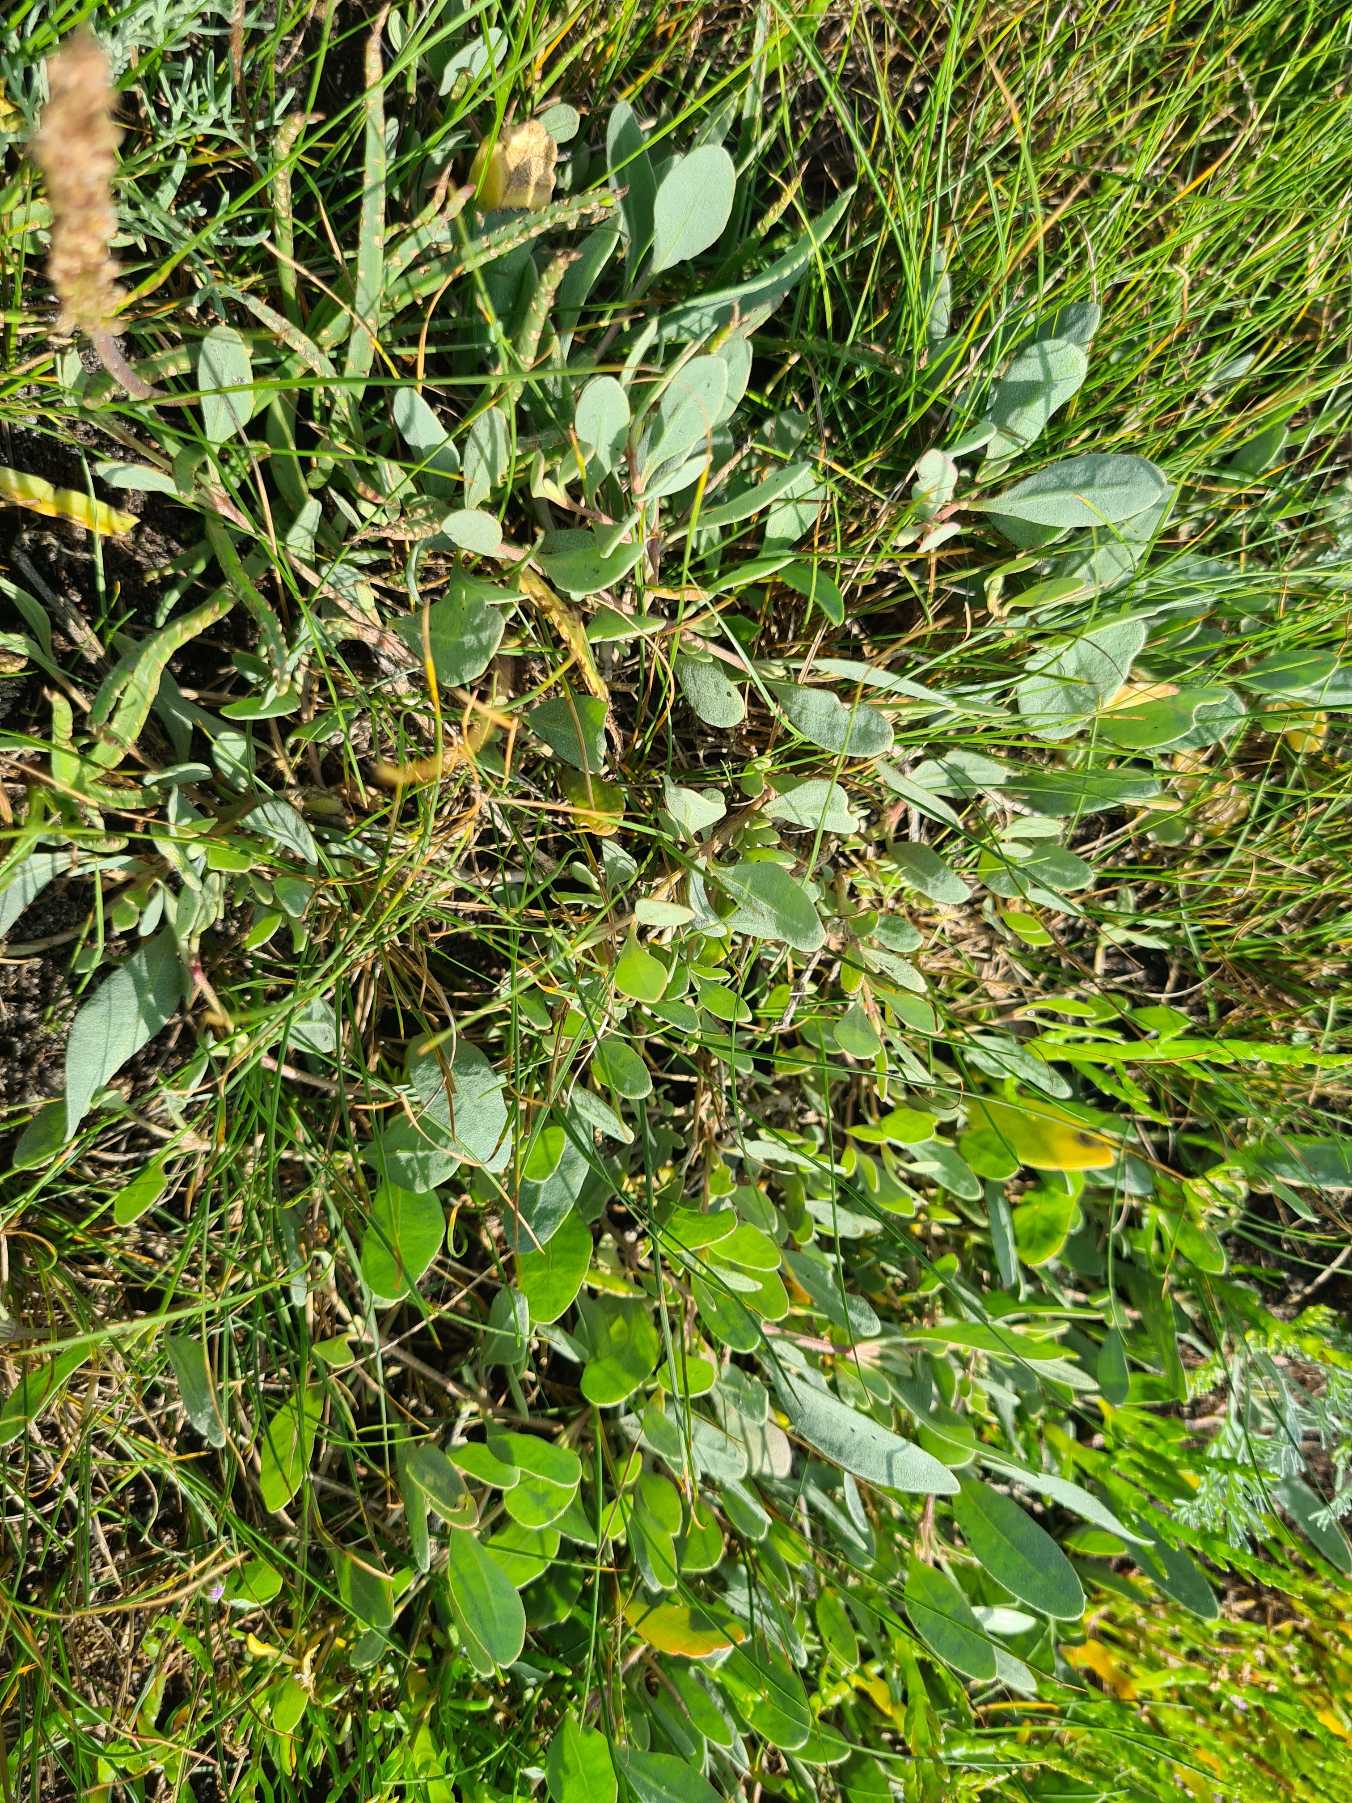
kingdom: Plantae
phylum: Tracheophyta
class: Magnoliopsida
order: Caryophyllales
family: Amaranthaceae
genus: Halimione
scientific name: Halimione portulacoides
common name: Stilkløs kilebæger
